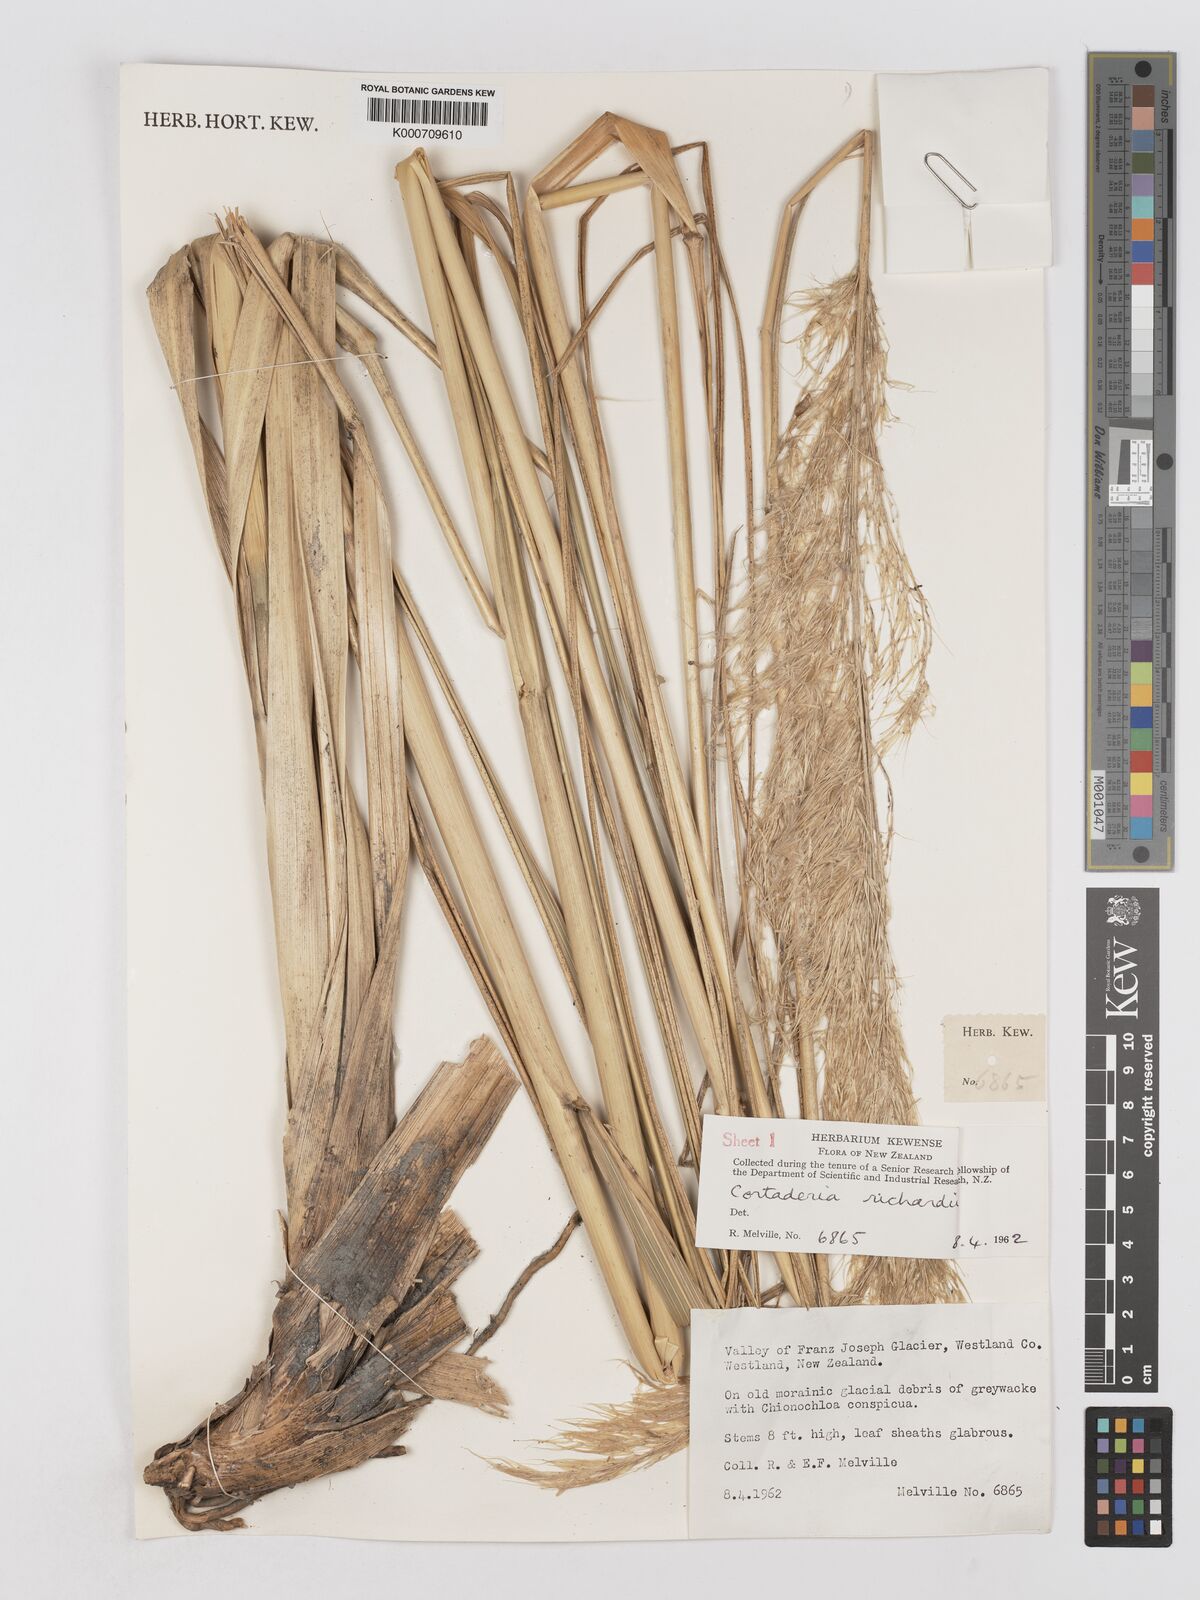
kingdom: Plantae
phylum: Tracheophyta
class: Liliopsida
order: Poales
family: Poaceae
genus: Austroderia
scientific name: Austroderia richardii
